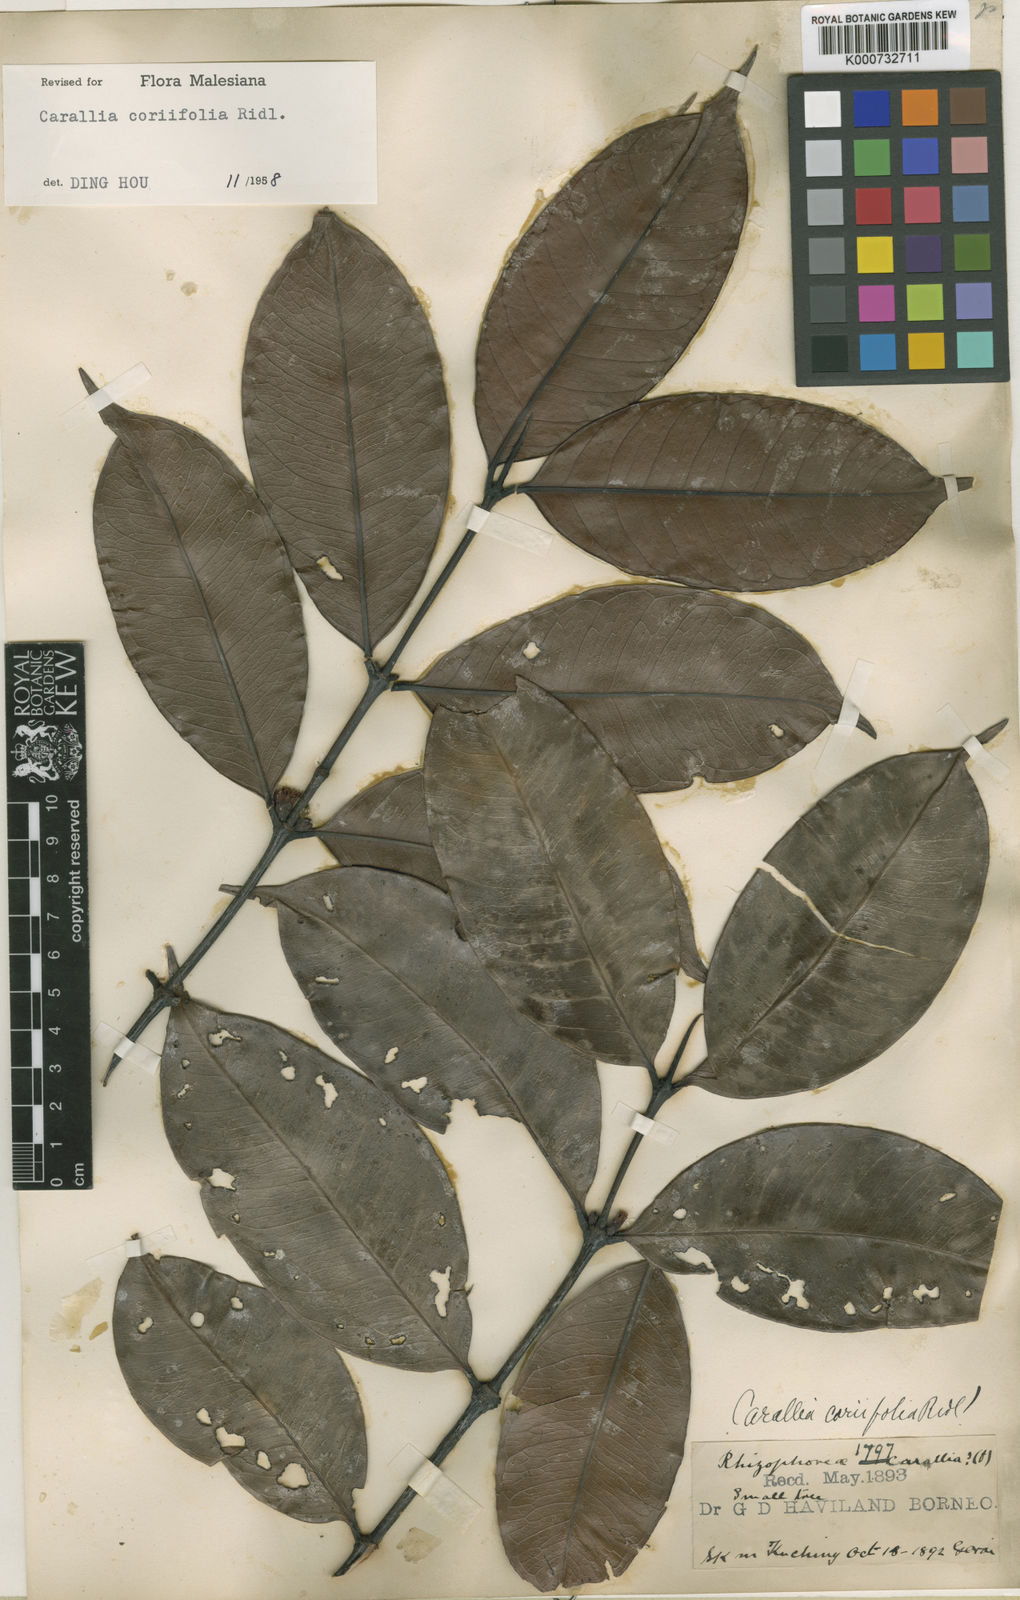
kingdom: Plantae
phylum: Tracheophyta
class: Magnoliopsida
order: Malpighiales
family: Rhizophoraceae
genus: Carallia
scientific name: Carallia coriifolia
